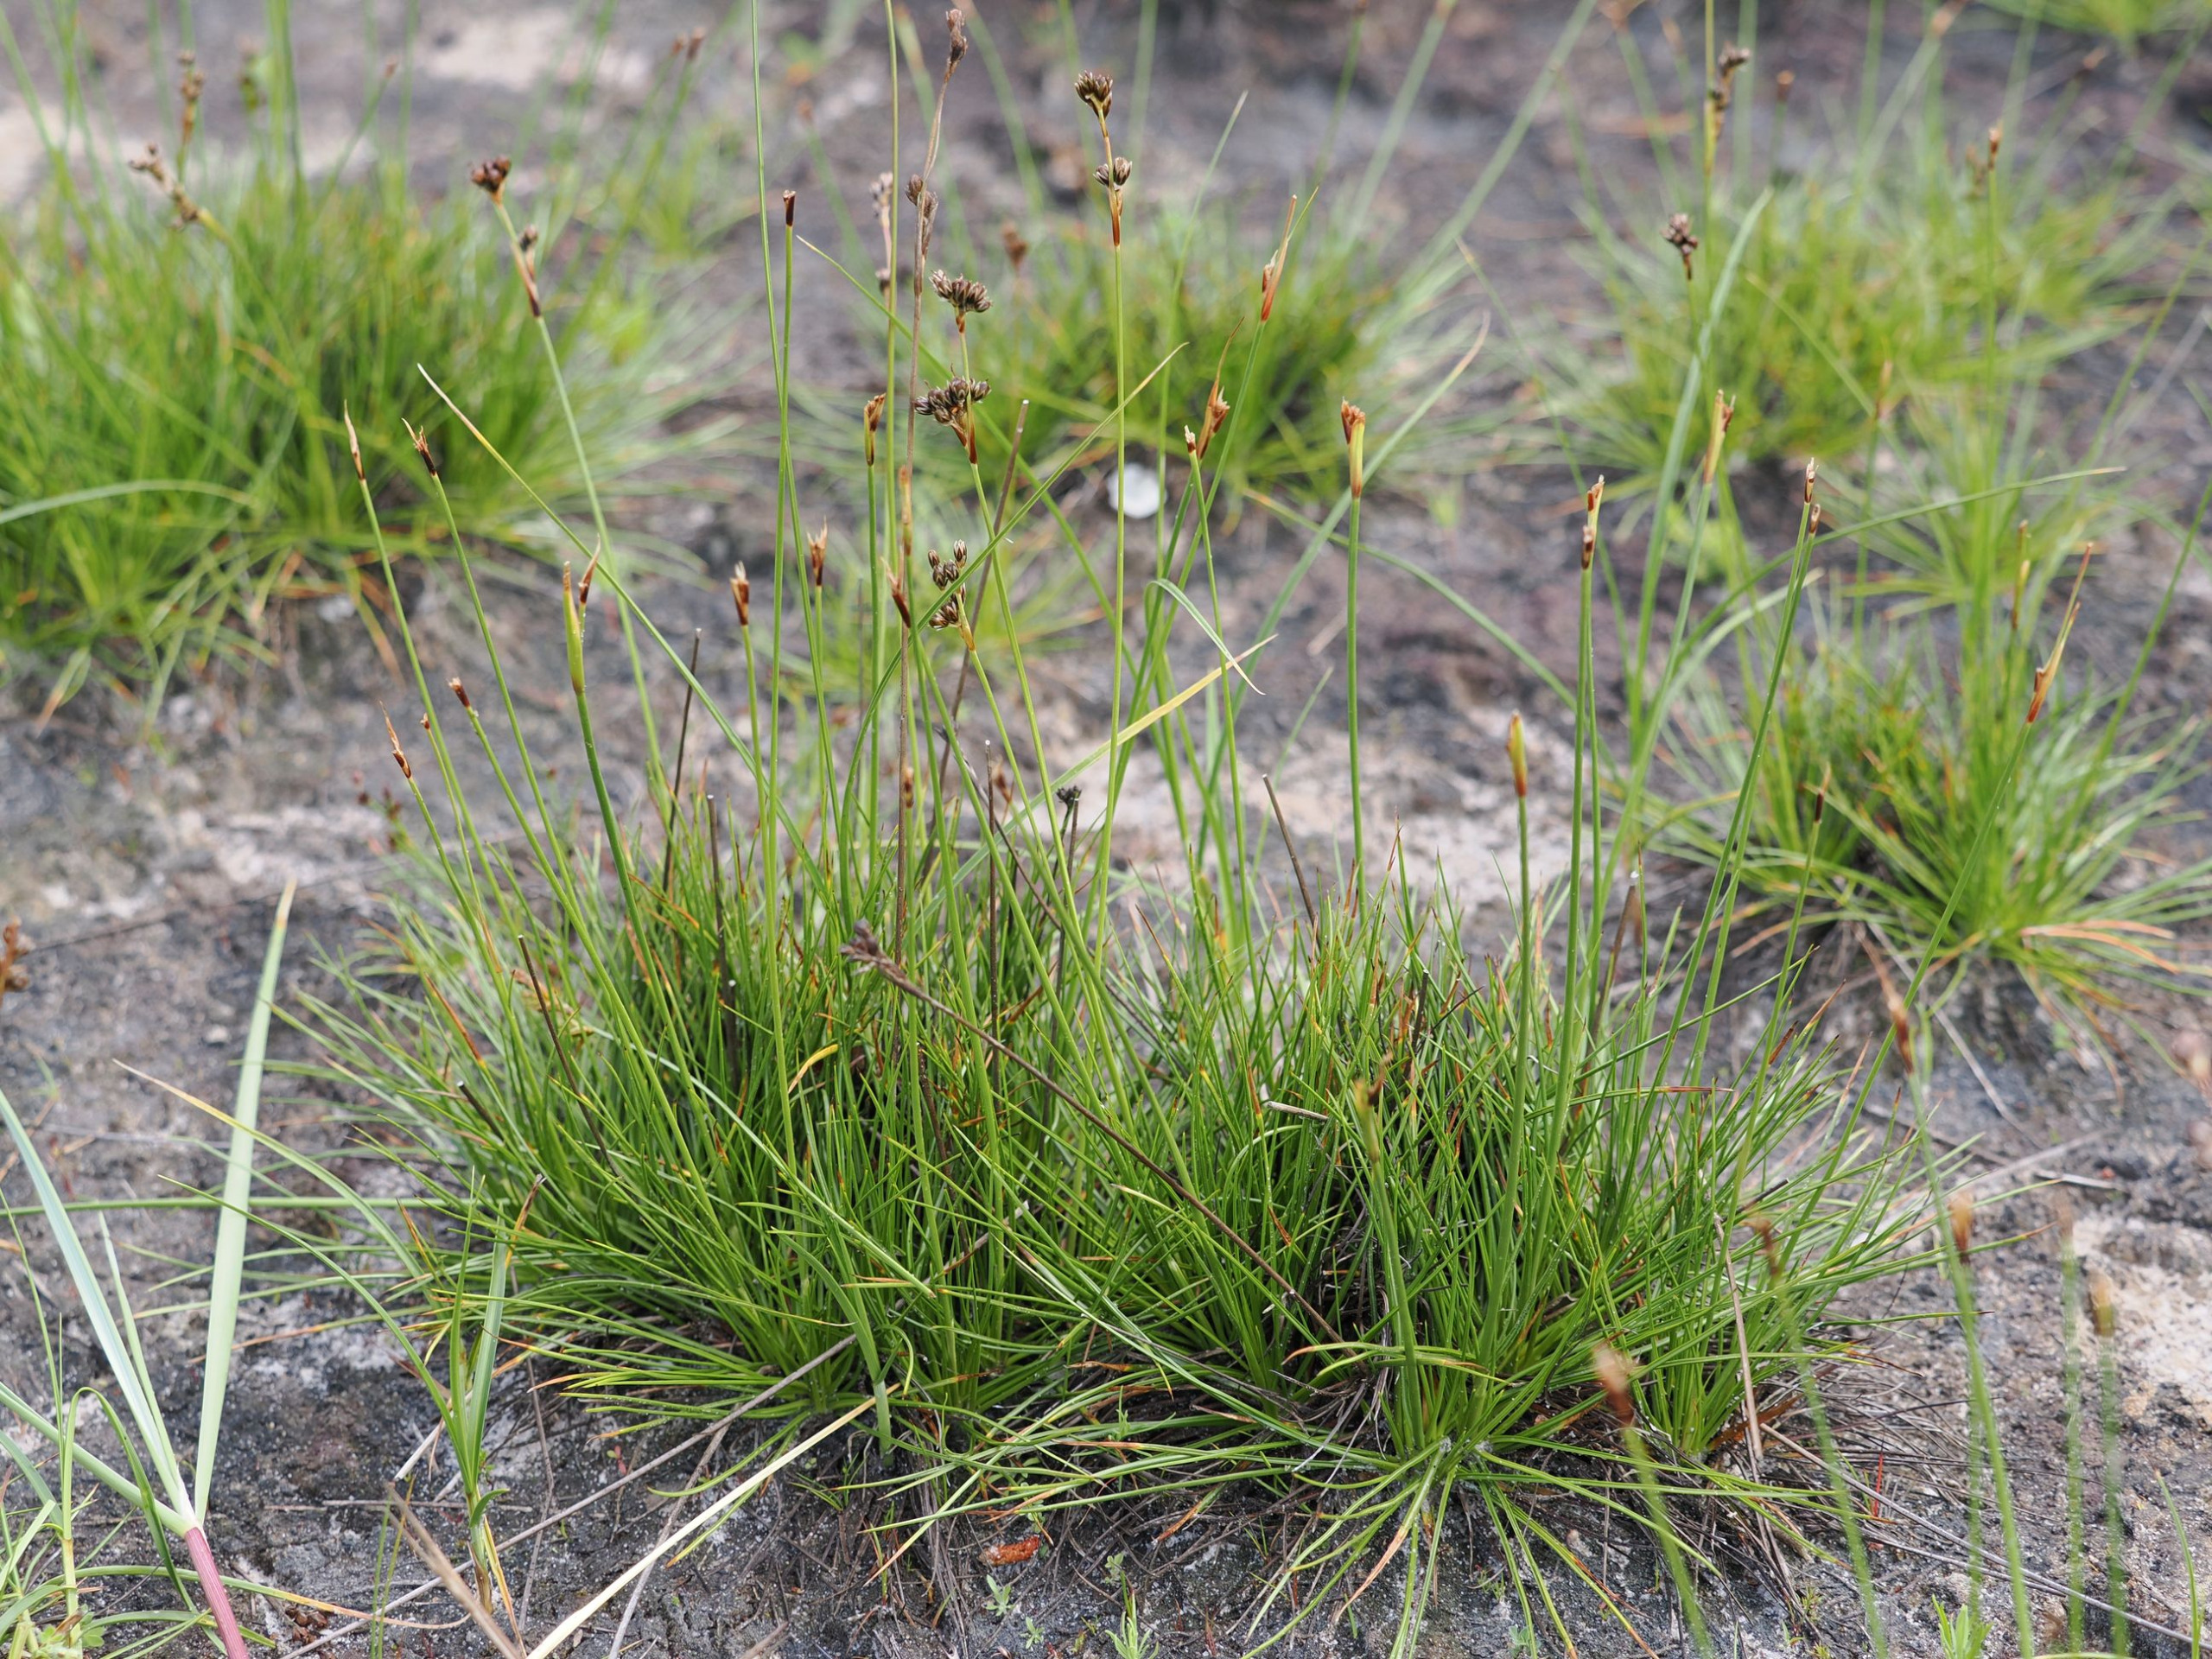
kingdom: Plantae
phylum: Tracheophyta
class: Liliopsida
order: Poales
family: Juncaceae
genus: Juncus
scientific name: Juncus squarrosus
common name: Børste-siv
